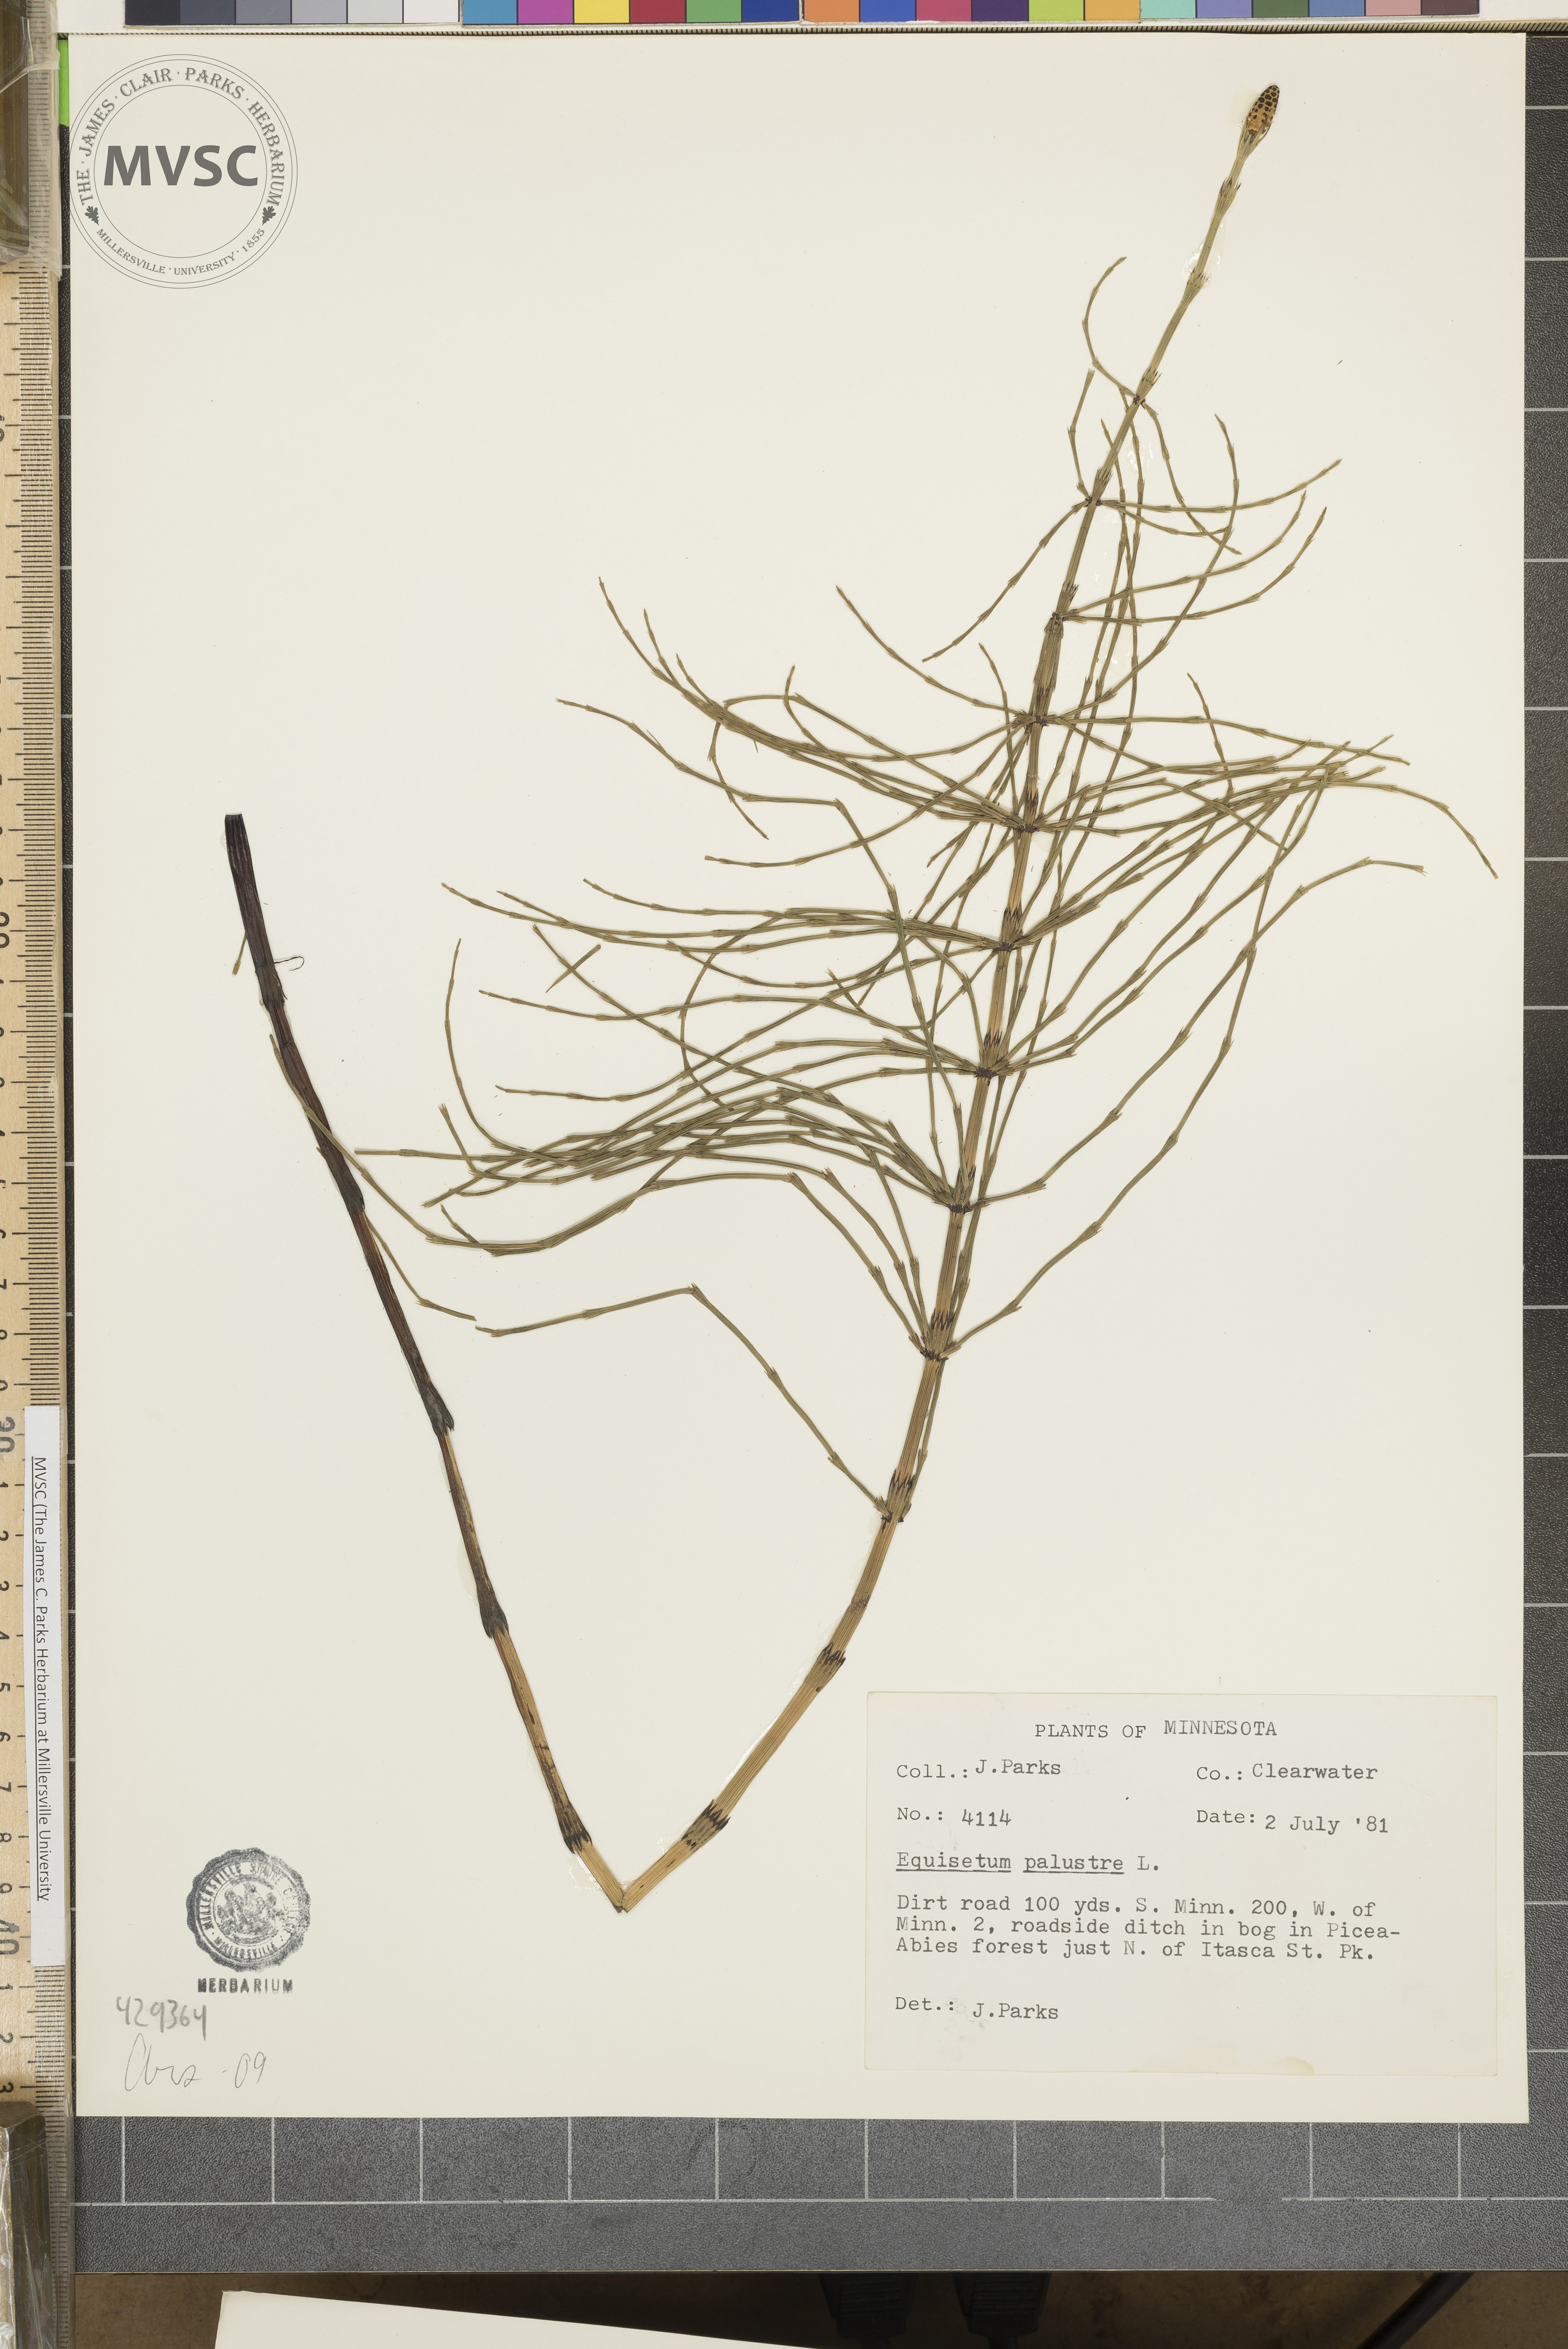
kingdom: Plantae
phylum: Tracheophyta
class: Polypodiopsida
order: Equisetales
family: Equisetaceae
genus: Equisetum
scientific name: Equisetum palustre
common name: Marsh horsetail
